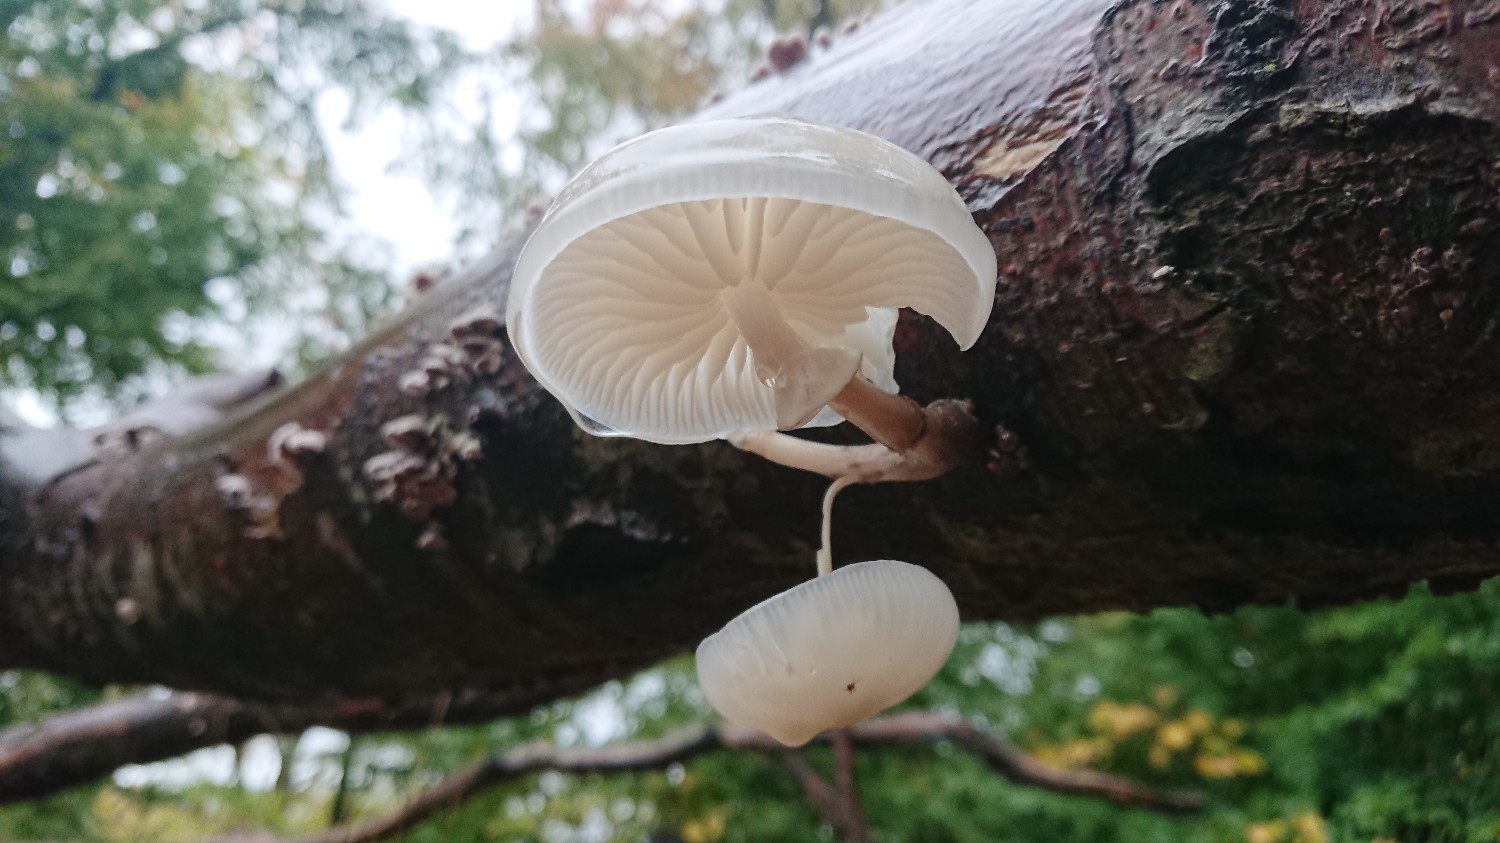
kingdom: Fungi
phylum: Basidiomycota
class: Agaricomycetes
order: Agaricales
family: Physalacriaceae
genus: Mucidula
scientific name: Mucidula mucida
